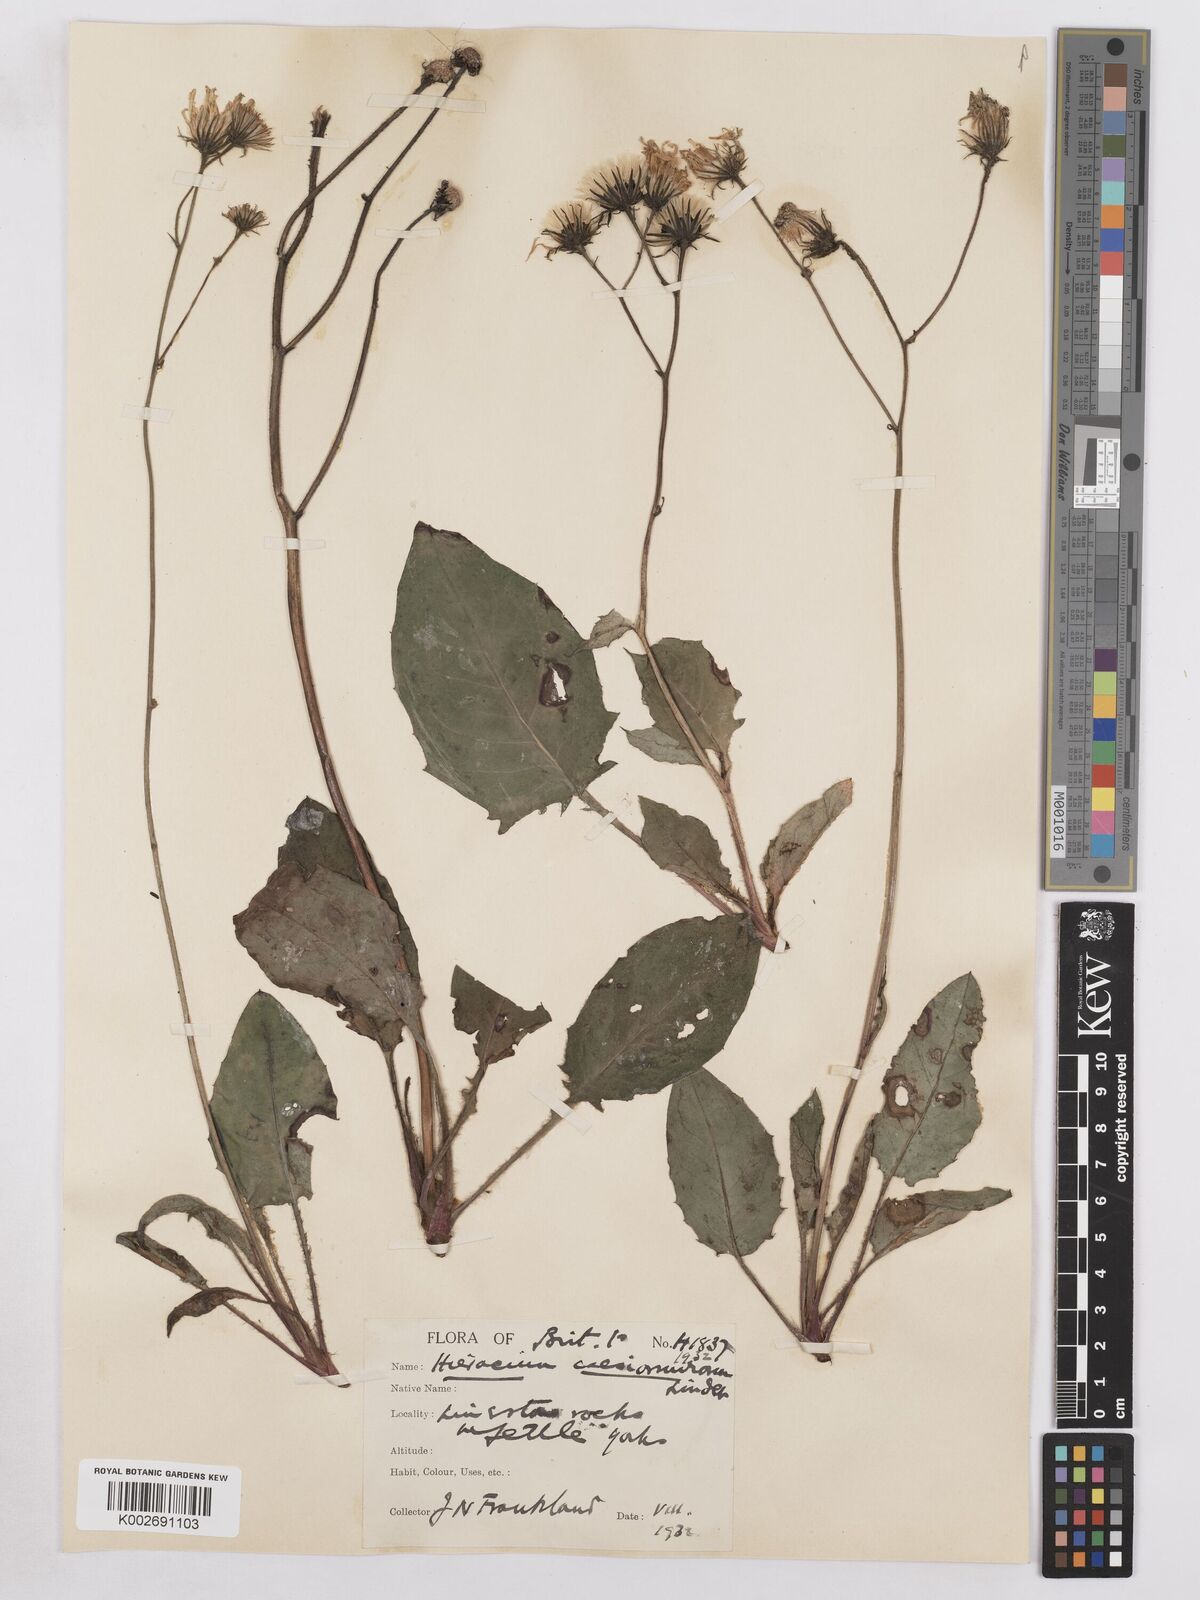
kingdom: Plantae
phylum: Tracheophyta
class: Magnoliopsida
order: Asterales
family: Asteraceae
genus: Hieracium
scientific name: Hieracium lachenalii
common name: Common hawkweed
